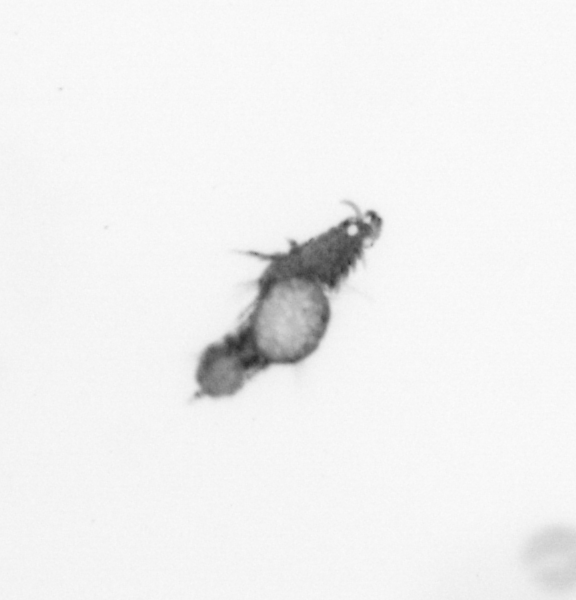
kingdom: Animalia
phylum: Annelida
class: Polychaeta
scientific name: Polychaeta
